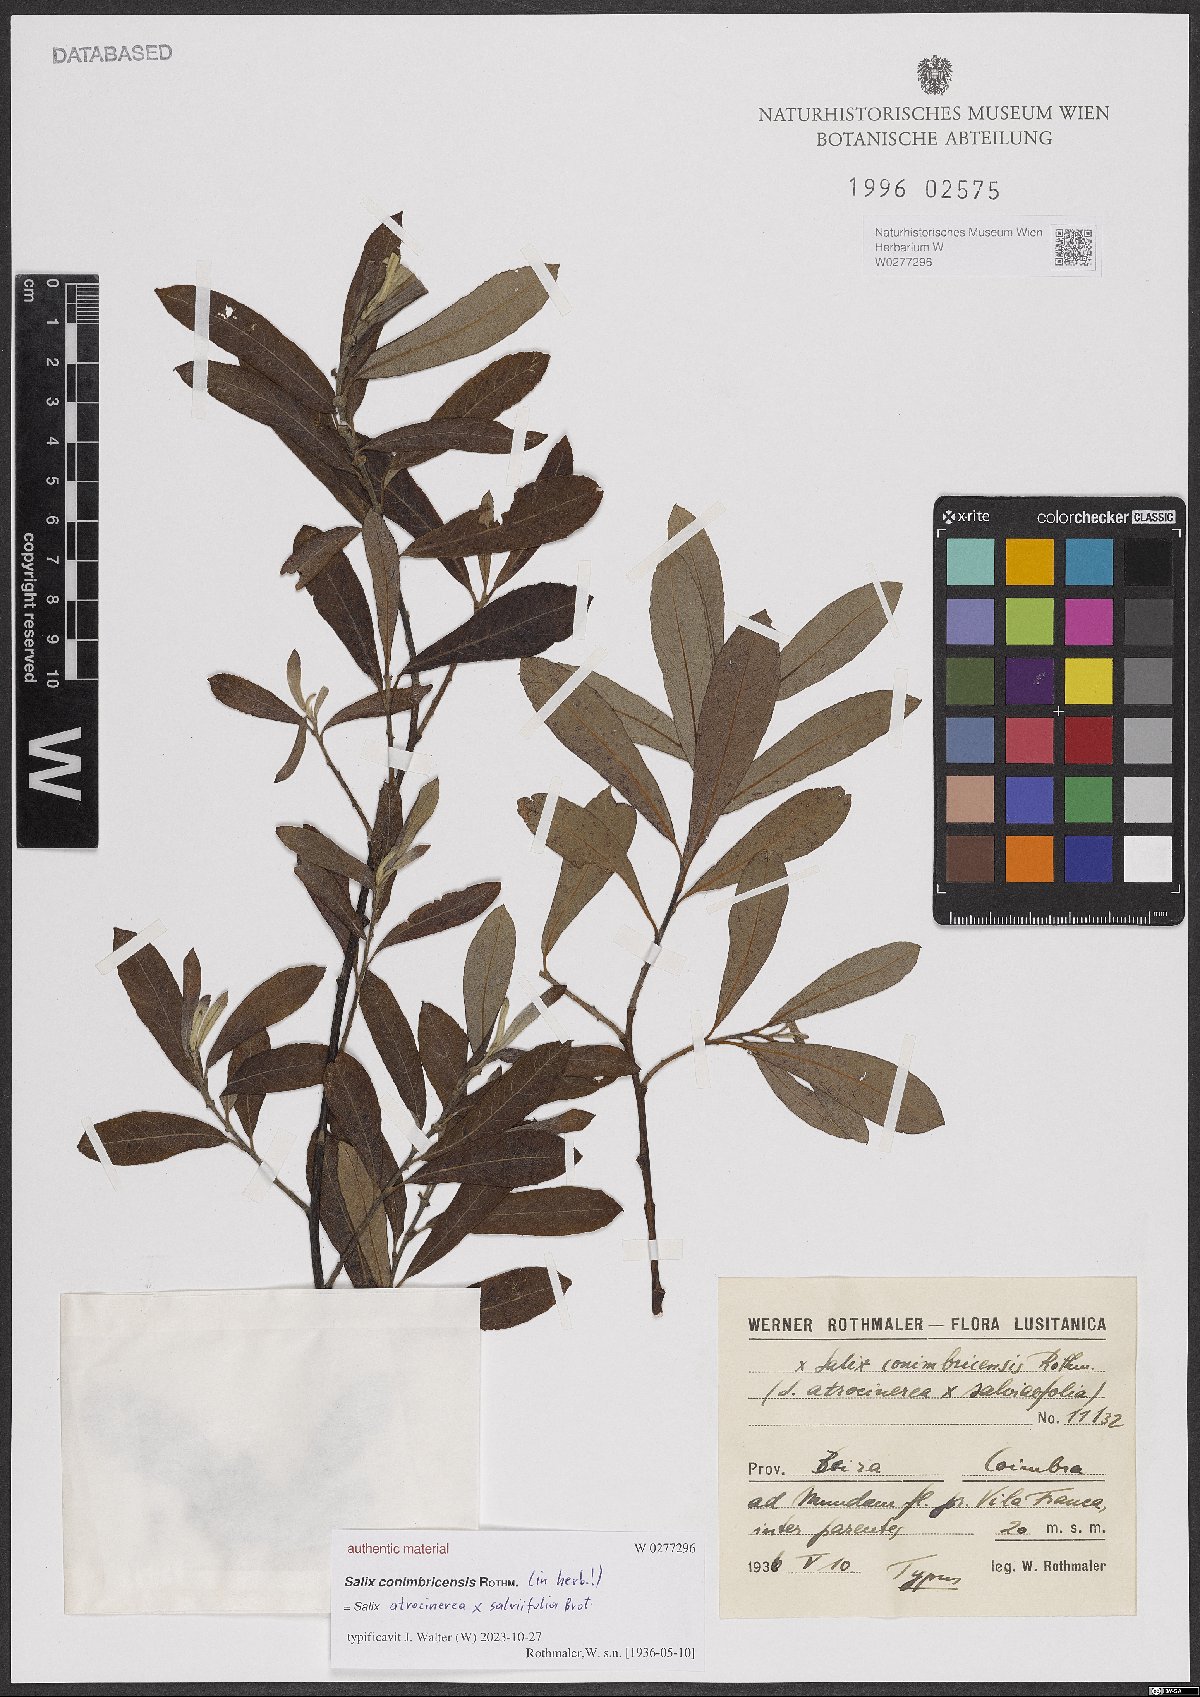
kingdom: Plantae
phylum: Tracheophyta
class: Magnoliopsida
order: Malpighiales
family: Salicaceae
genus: Salix
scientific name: Salix
